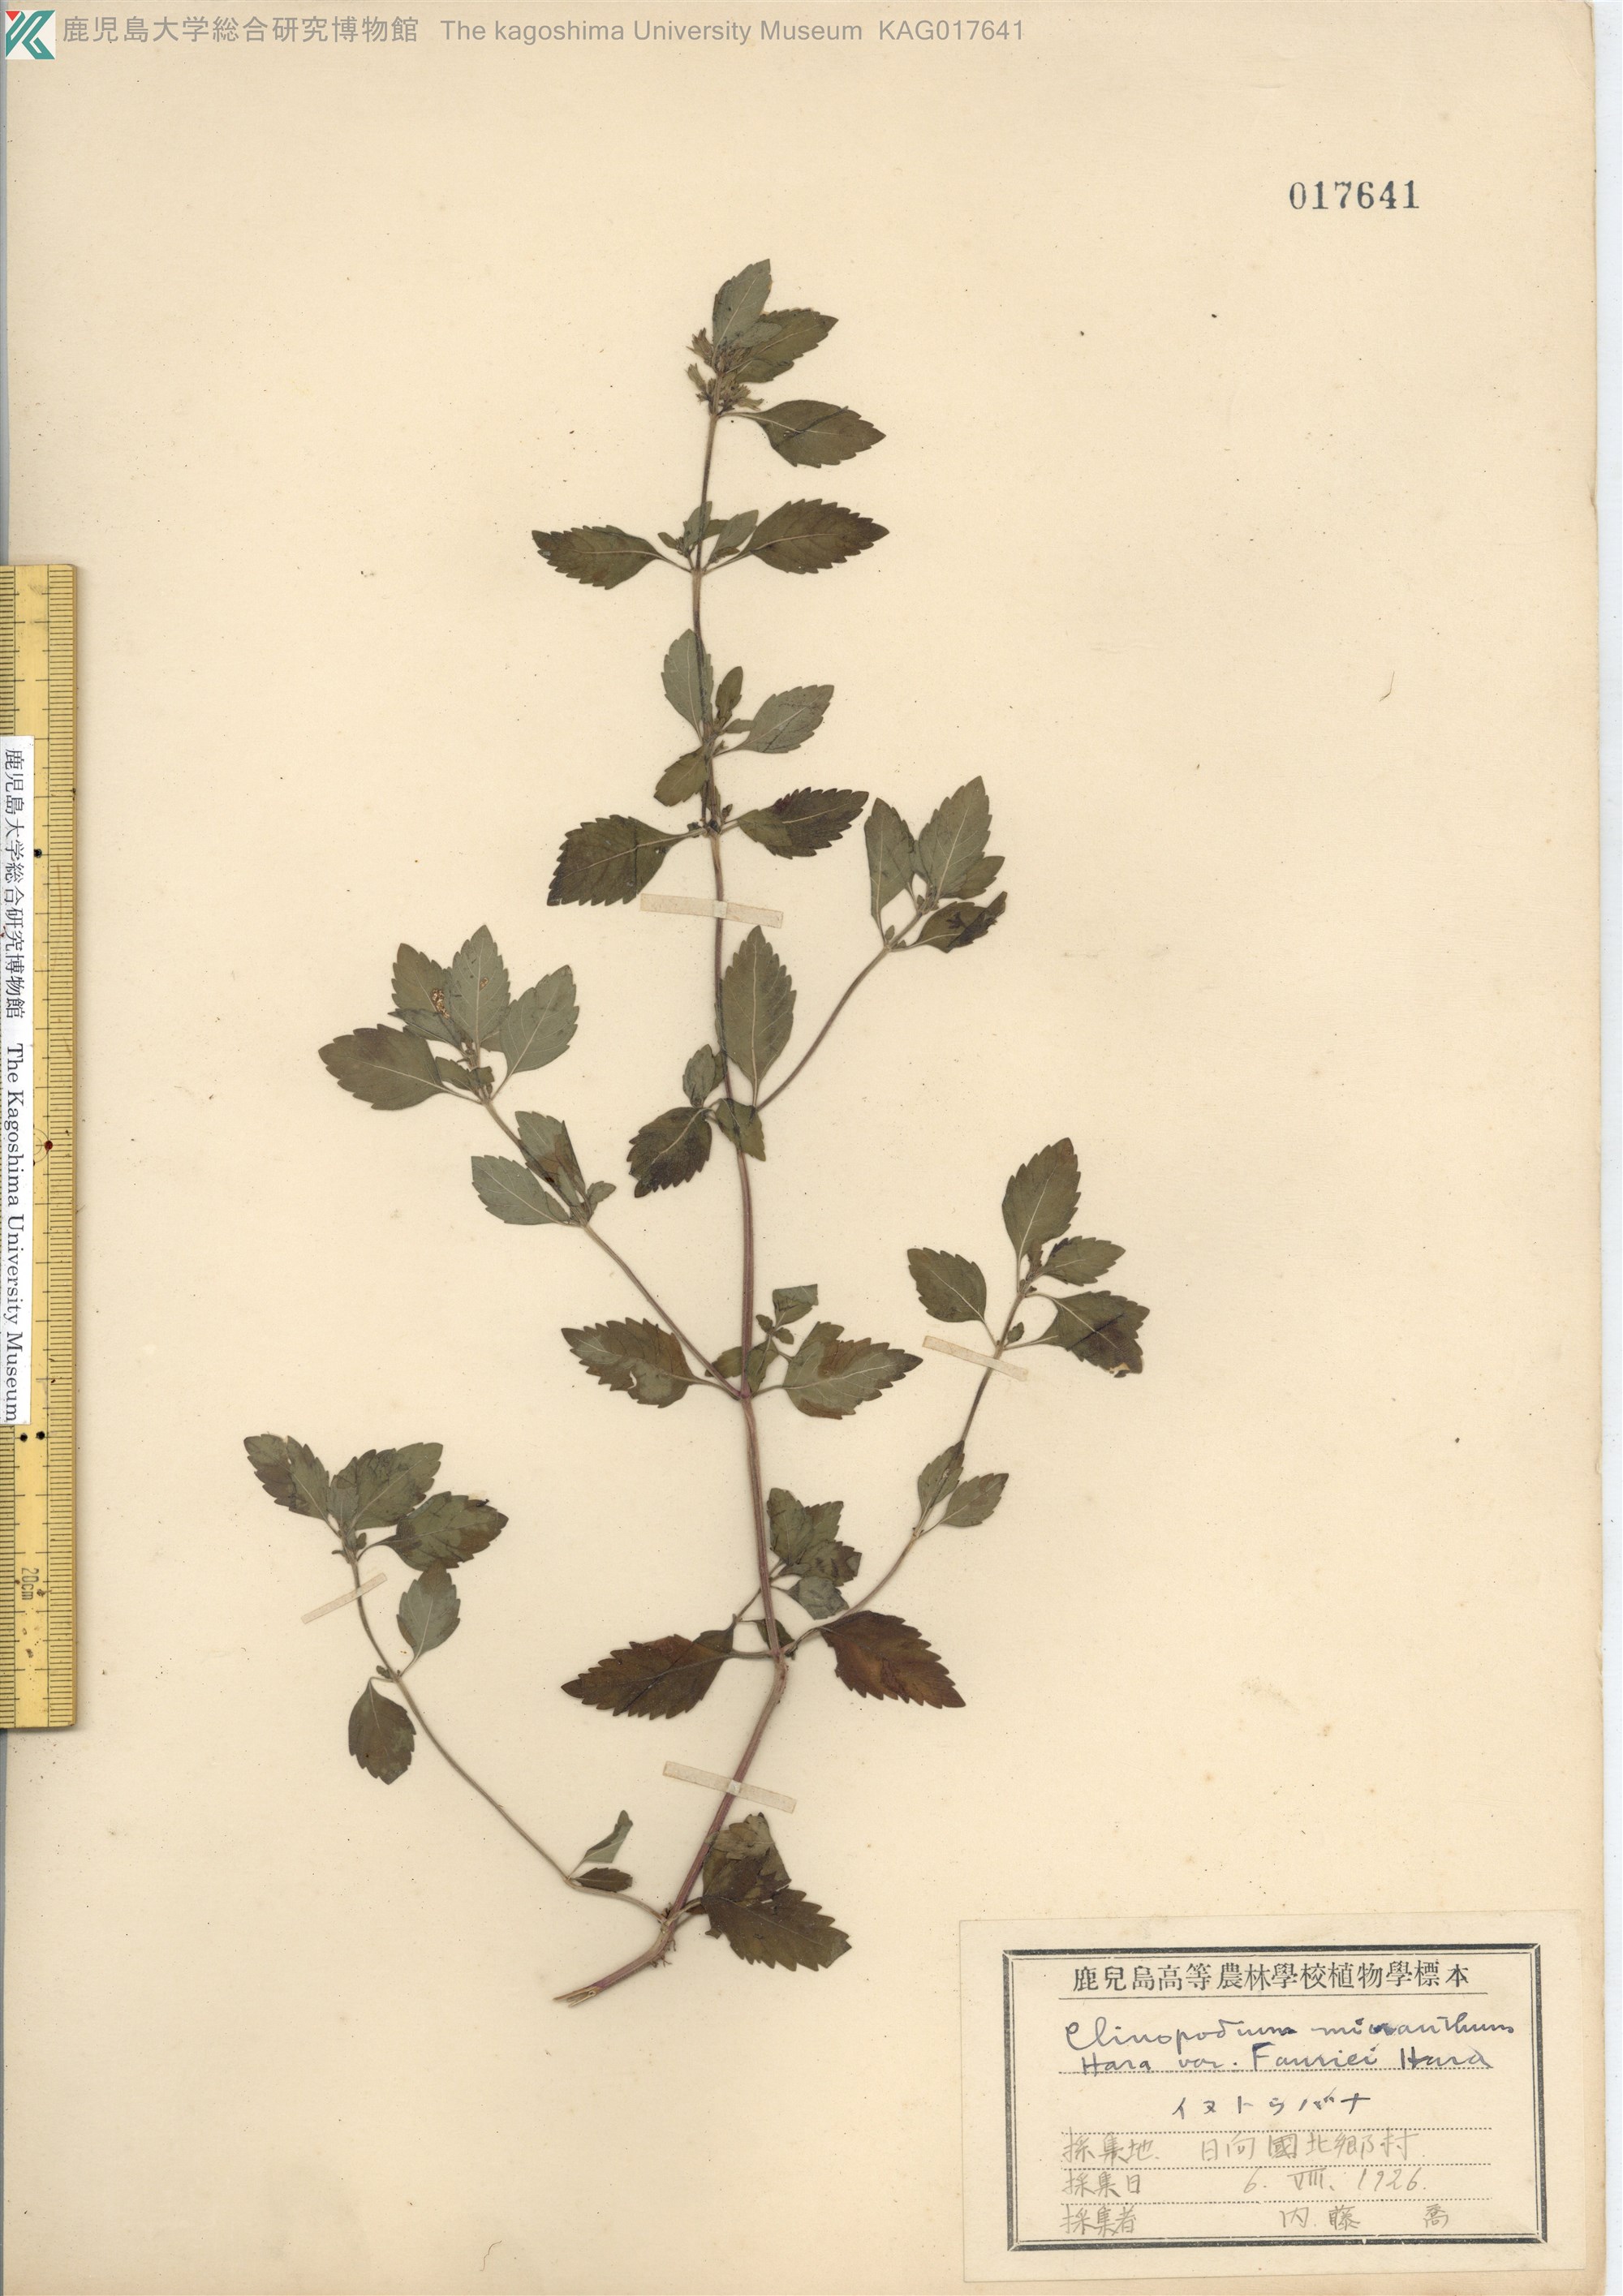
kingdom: Plantae
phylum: Tracheophyta
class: Magnoliopsida
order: Lamiales
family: Lamiaceae
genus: Clinopodium
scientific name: Clinopodium micranthum
